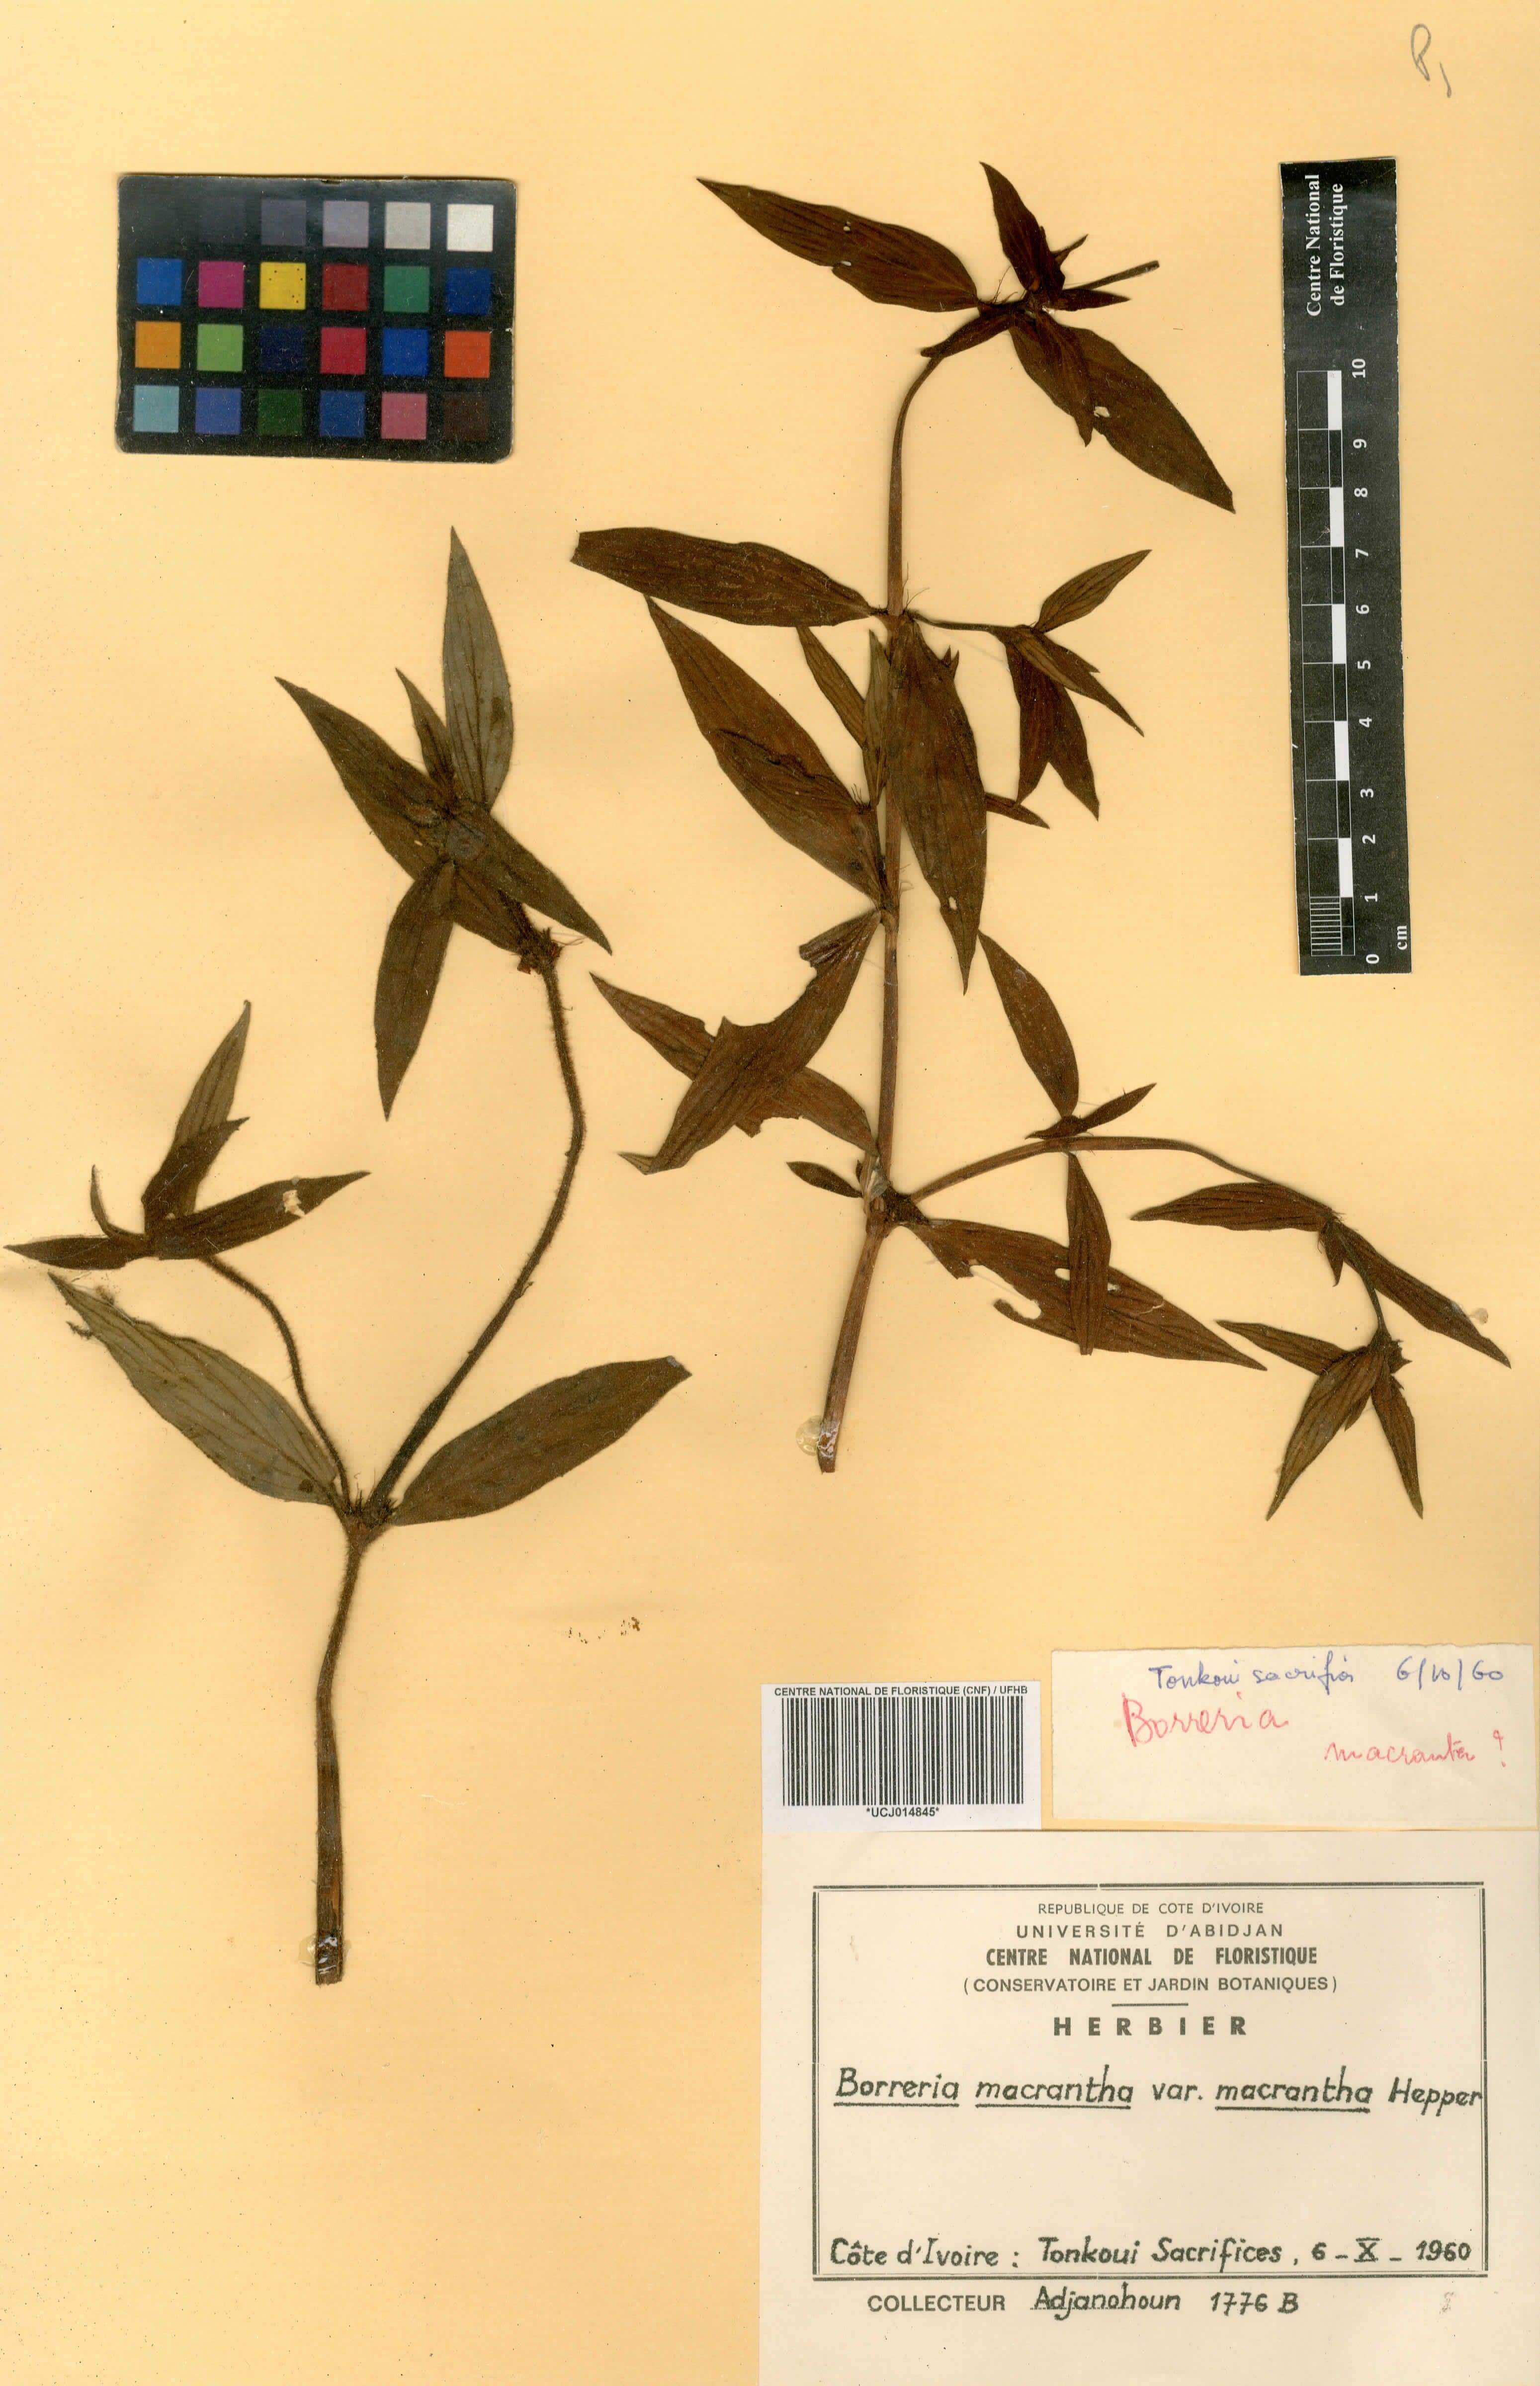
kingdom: Plantae
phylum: Tracheophyta
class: Magnoliopsida
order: Gentianales
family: Rubiaceae
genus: Spermacoce
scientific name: Spermacoce ivorensis
